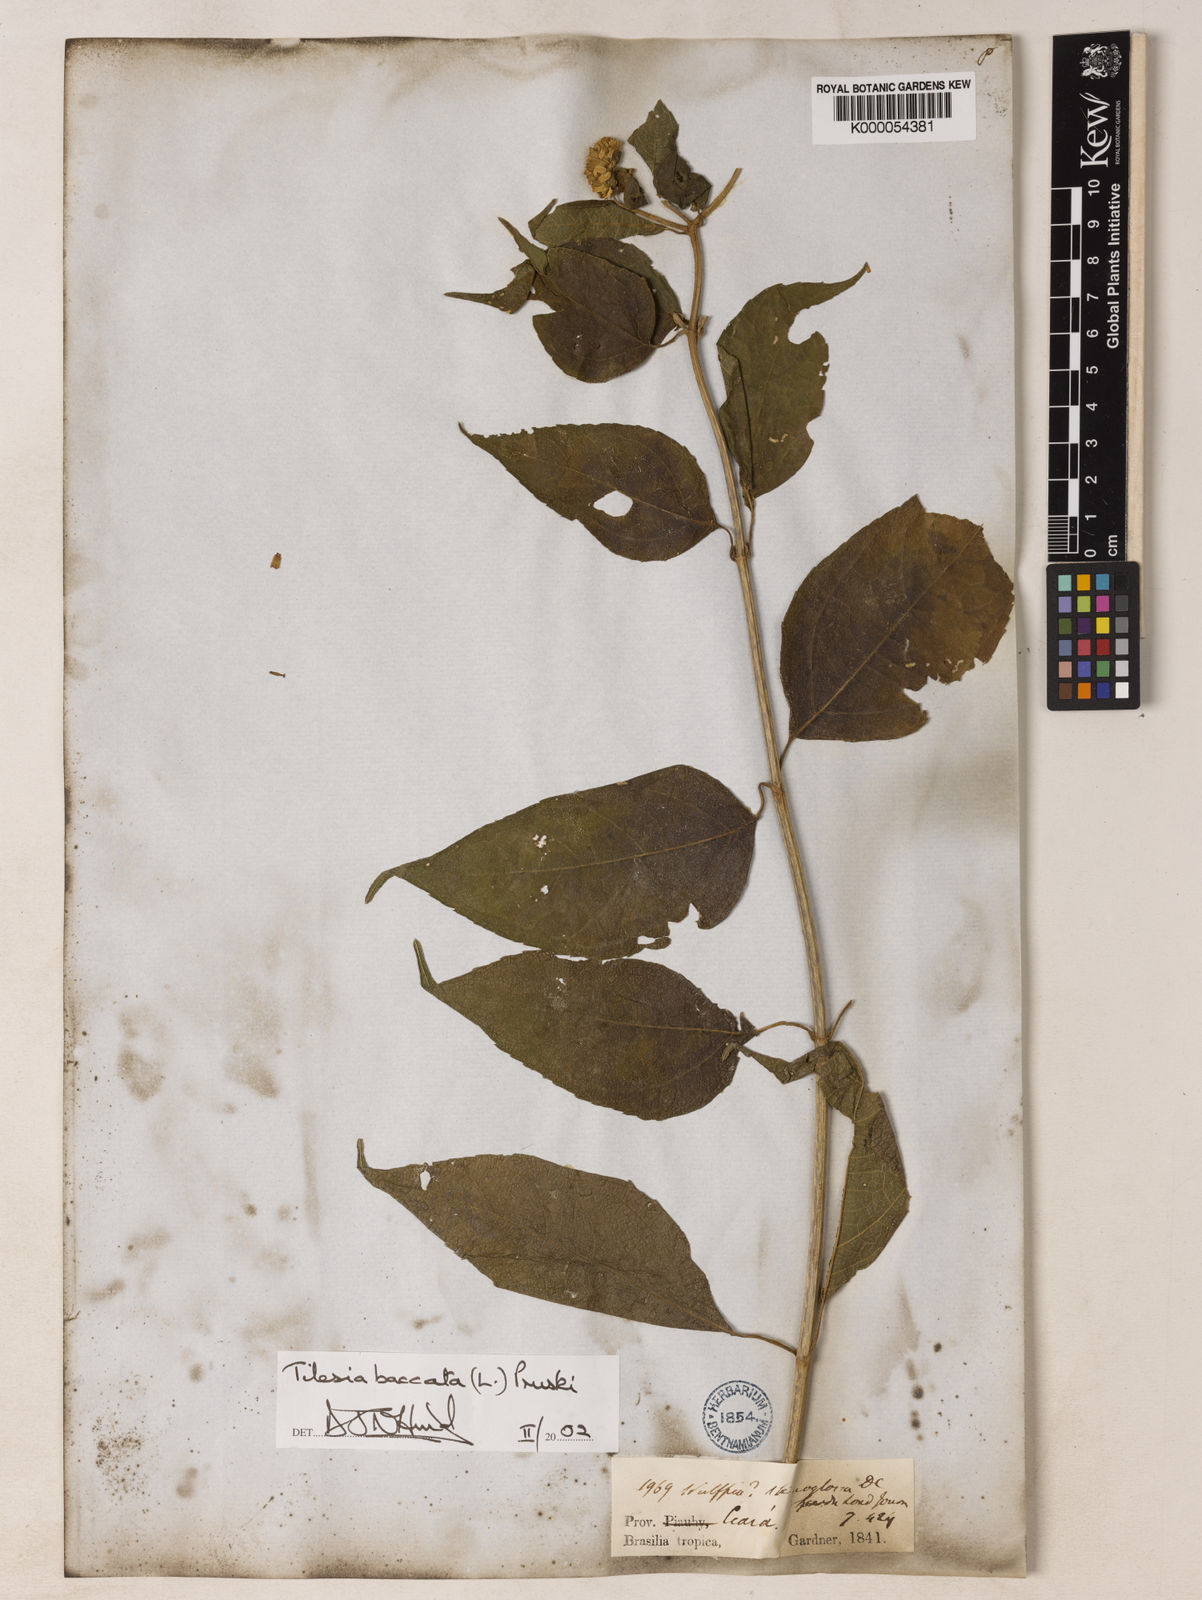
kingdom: Plantae
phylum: Tracheophyta
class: Magnoliopsida
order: Asterales
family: Asteraceae
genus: Tilesia
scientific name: Tilesia baccata
